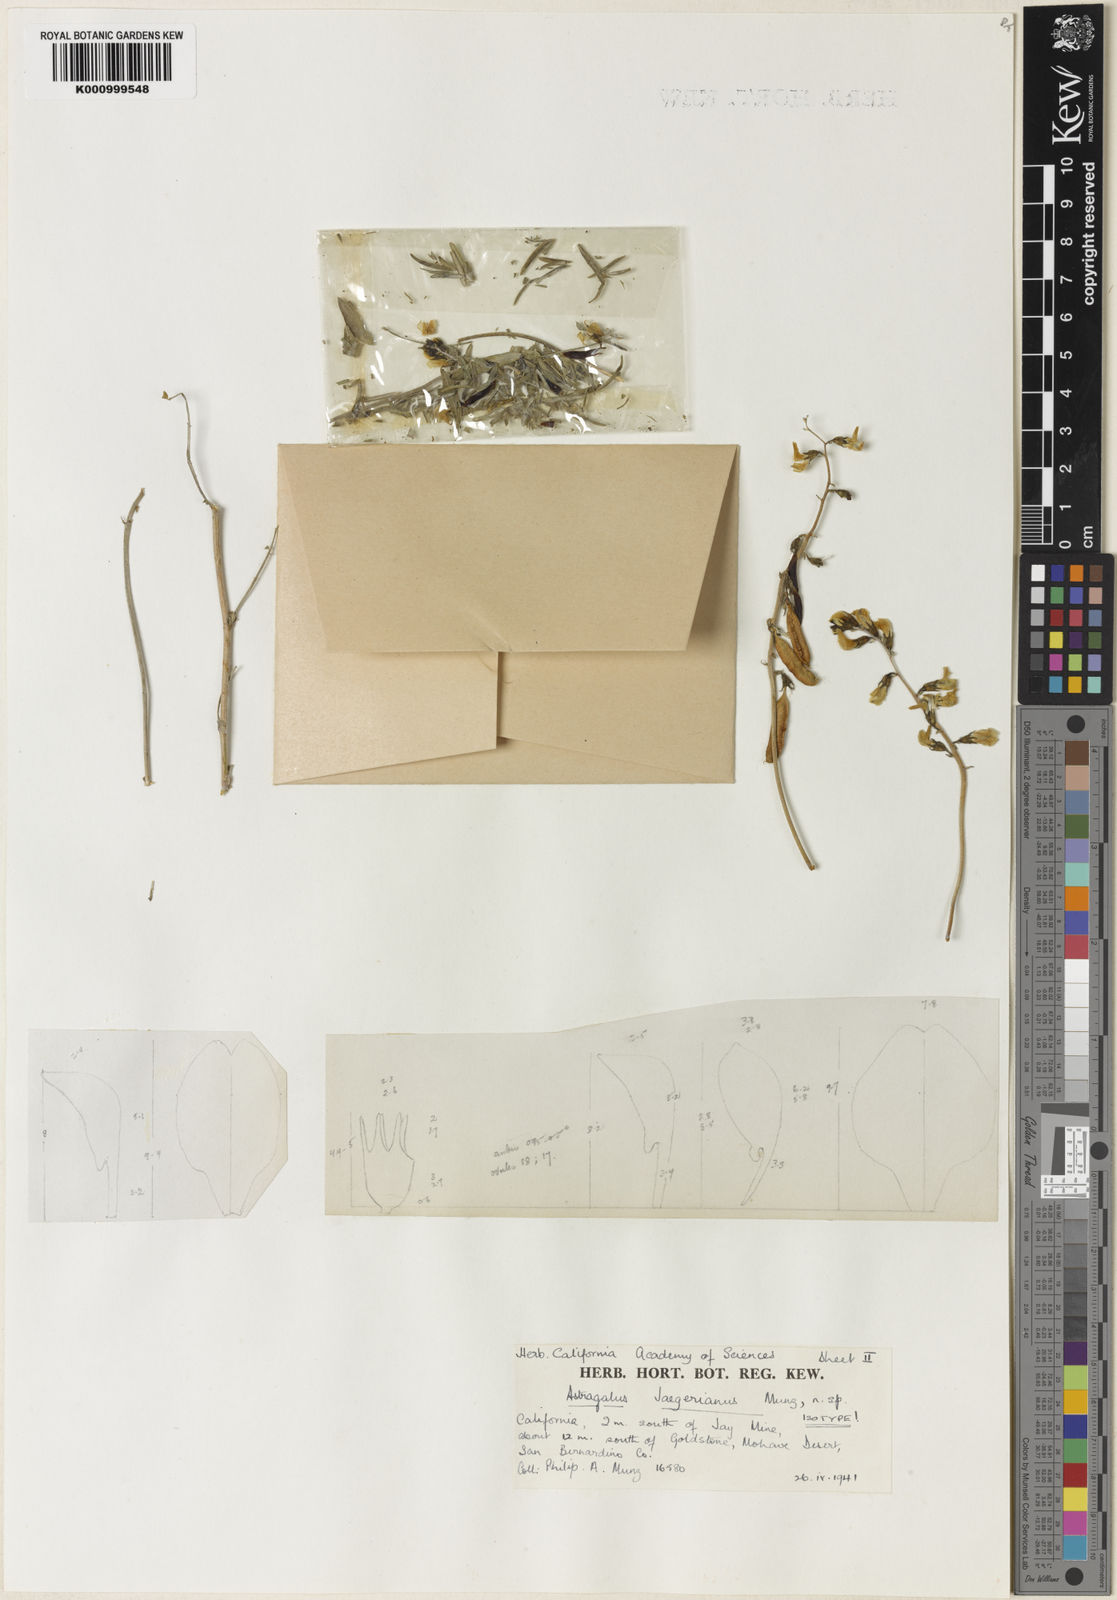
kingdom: Plantae
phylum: Tracheophyta
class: Magnoliopsida
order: Fabales
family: Fabaceae
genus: Astragalus
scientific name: Astragalus jaegerianus
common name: Lane mountain milk-vetch
